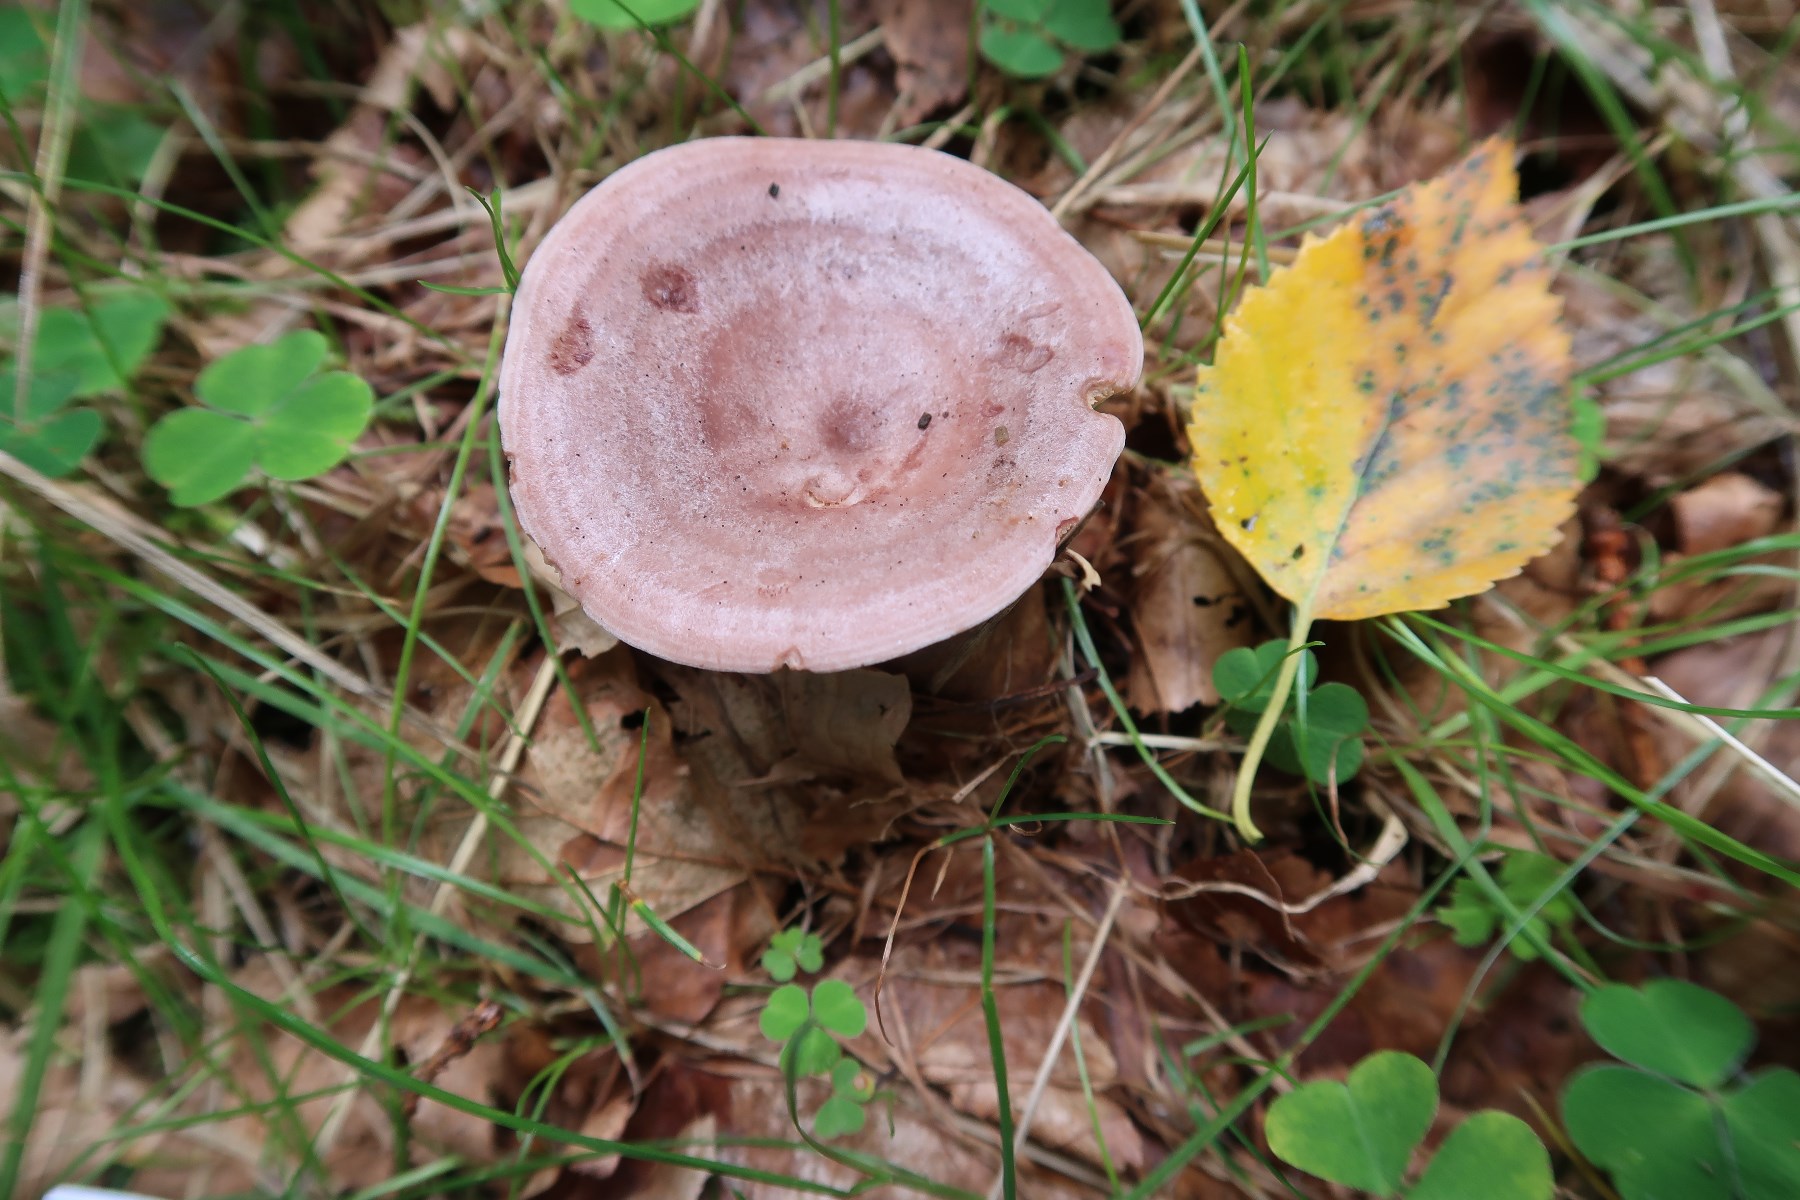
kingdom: Fungi
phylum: Basidiomycota
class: Agaricomycetes
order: Russulales
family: Russulaceae
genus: Lactarius
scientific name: Lactarius trivialis
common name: nordisk mælkehat
